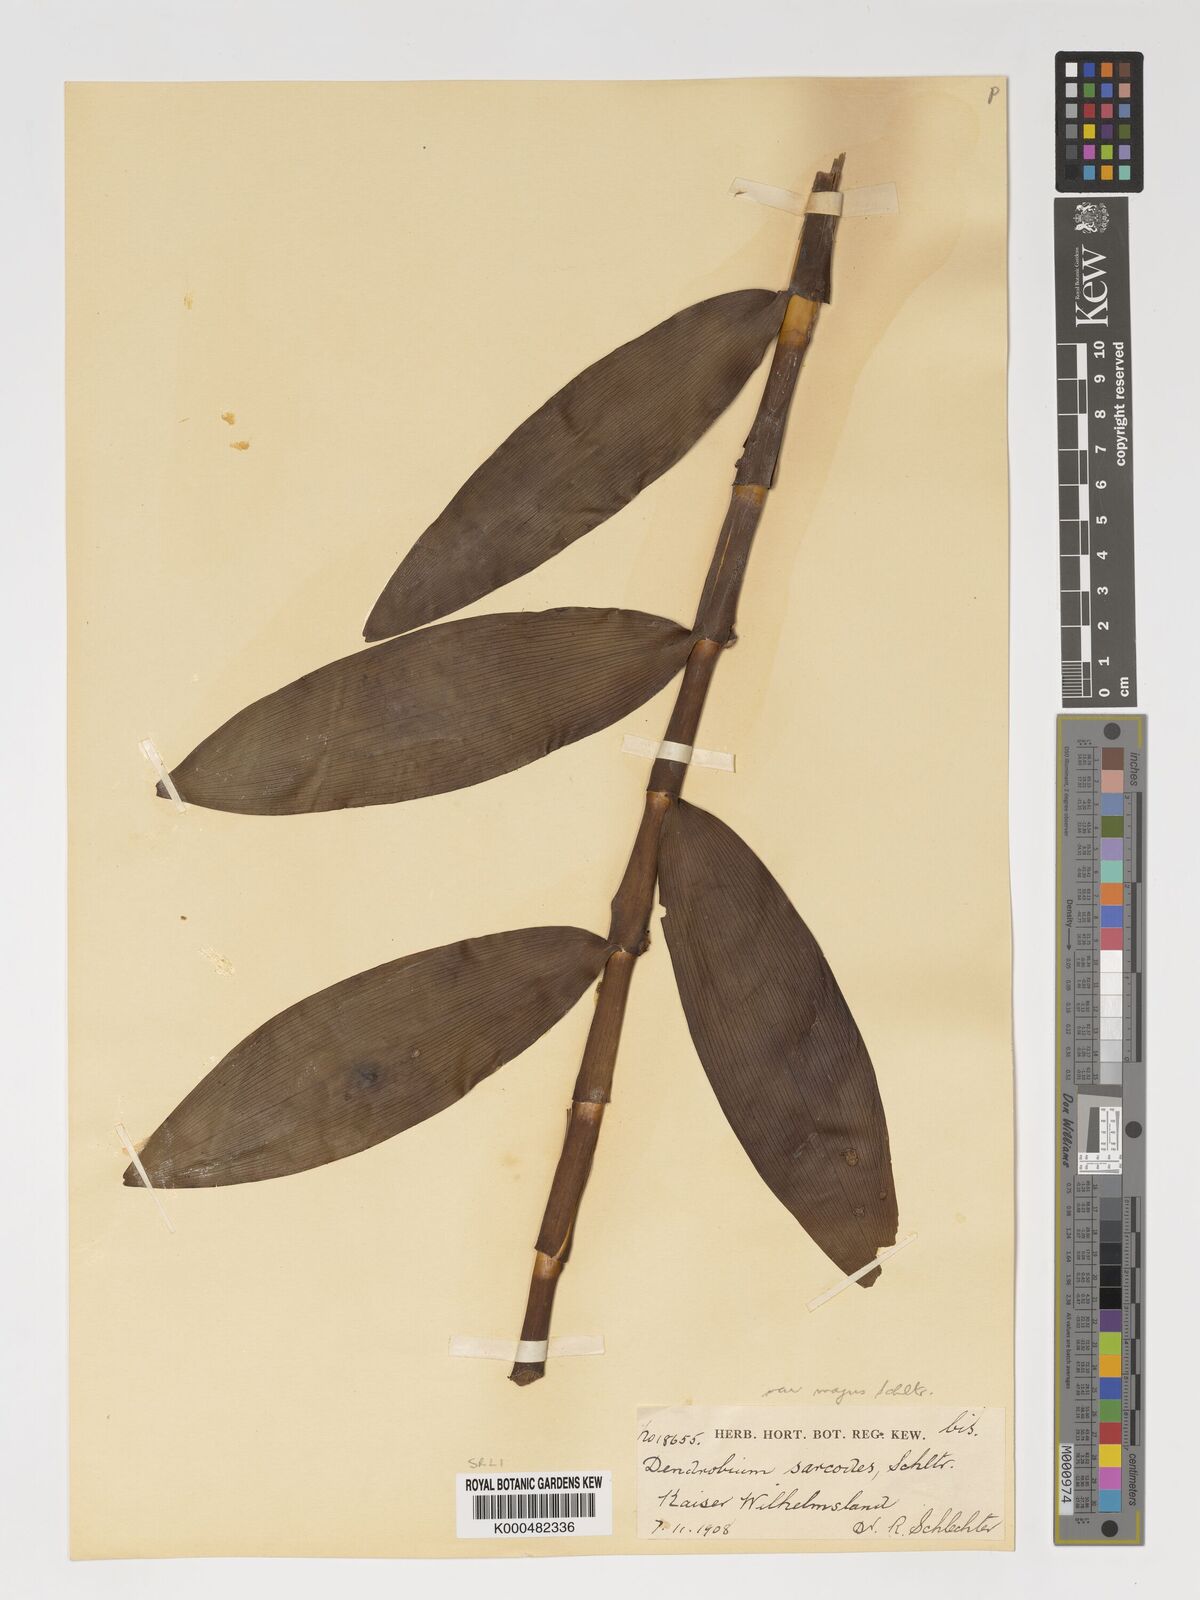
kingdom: Plantae
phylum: Tracheophyta
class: Liliopsida
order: Asparagales
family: Orchidaceae
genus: Dendrobium
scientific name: Dendrobium poneroides
